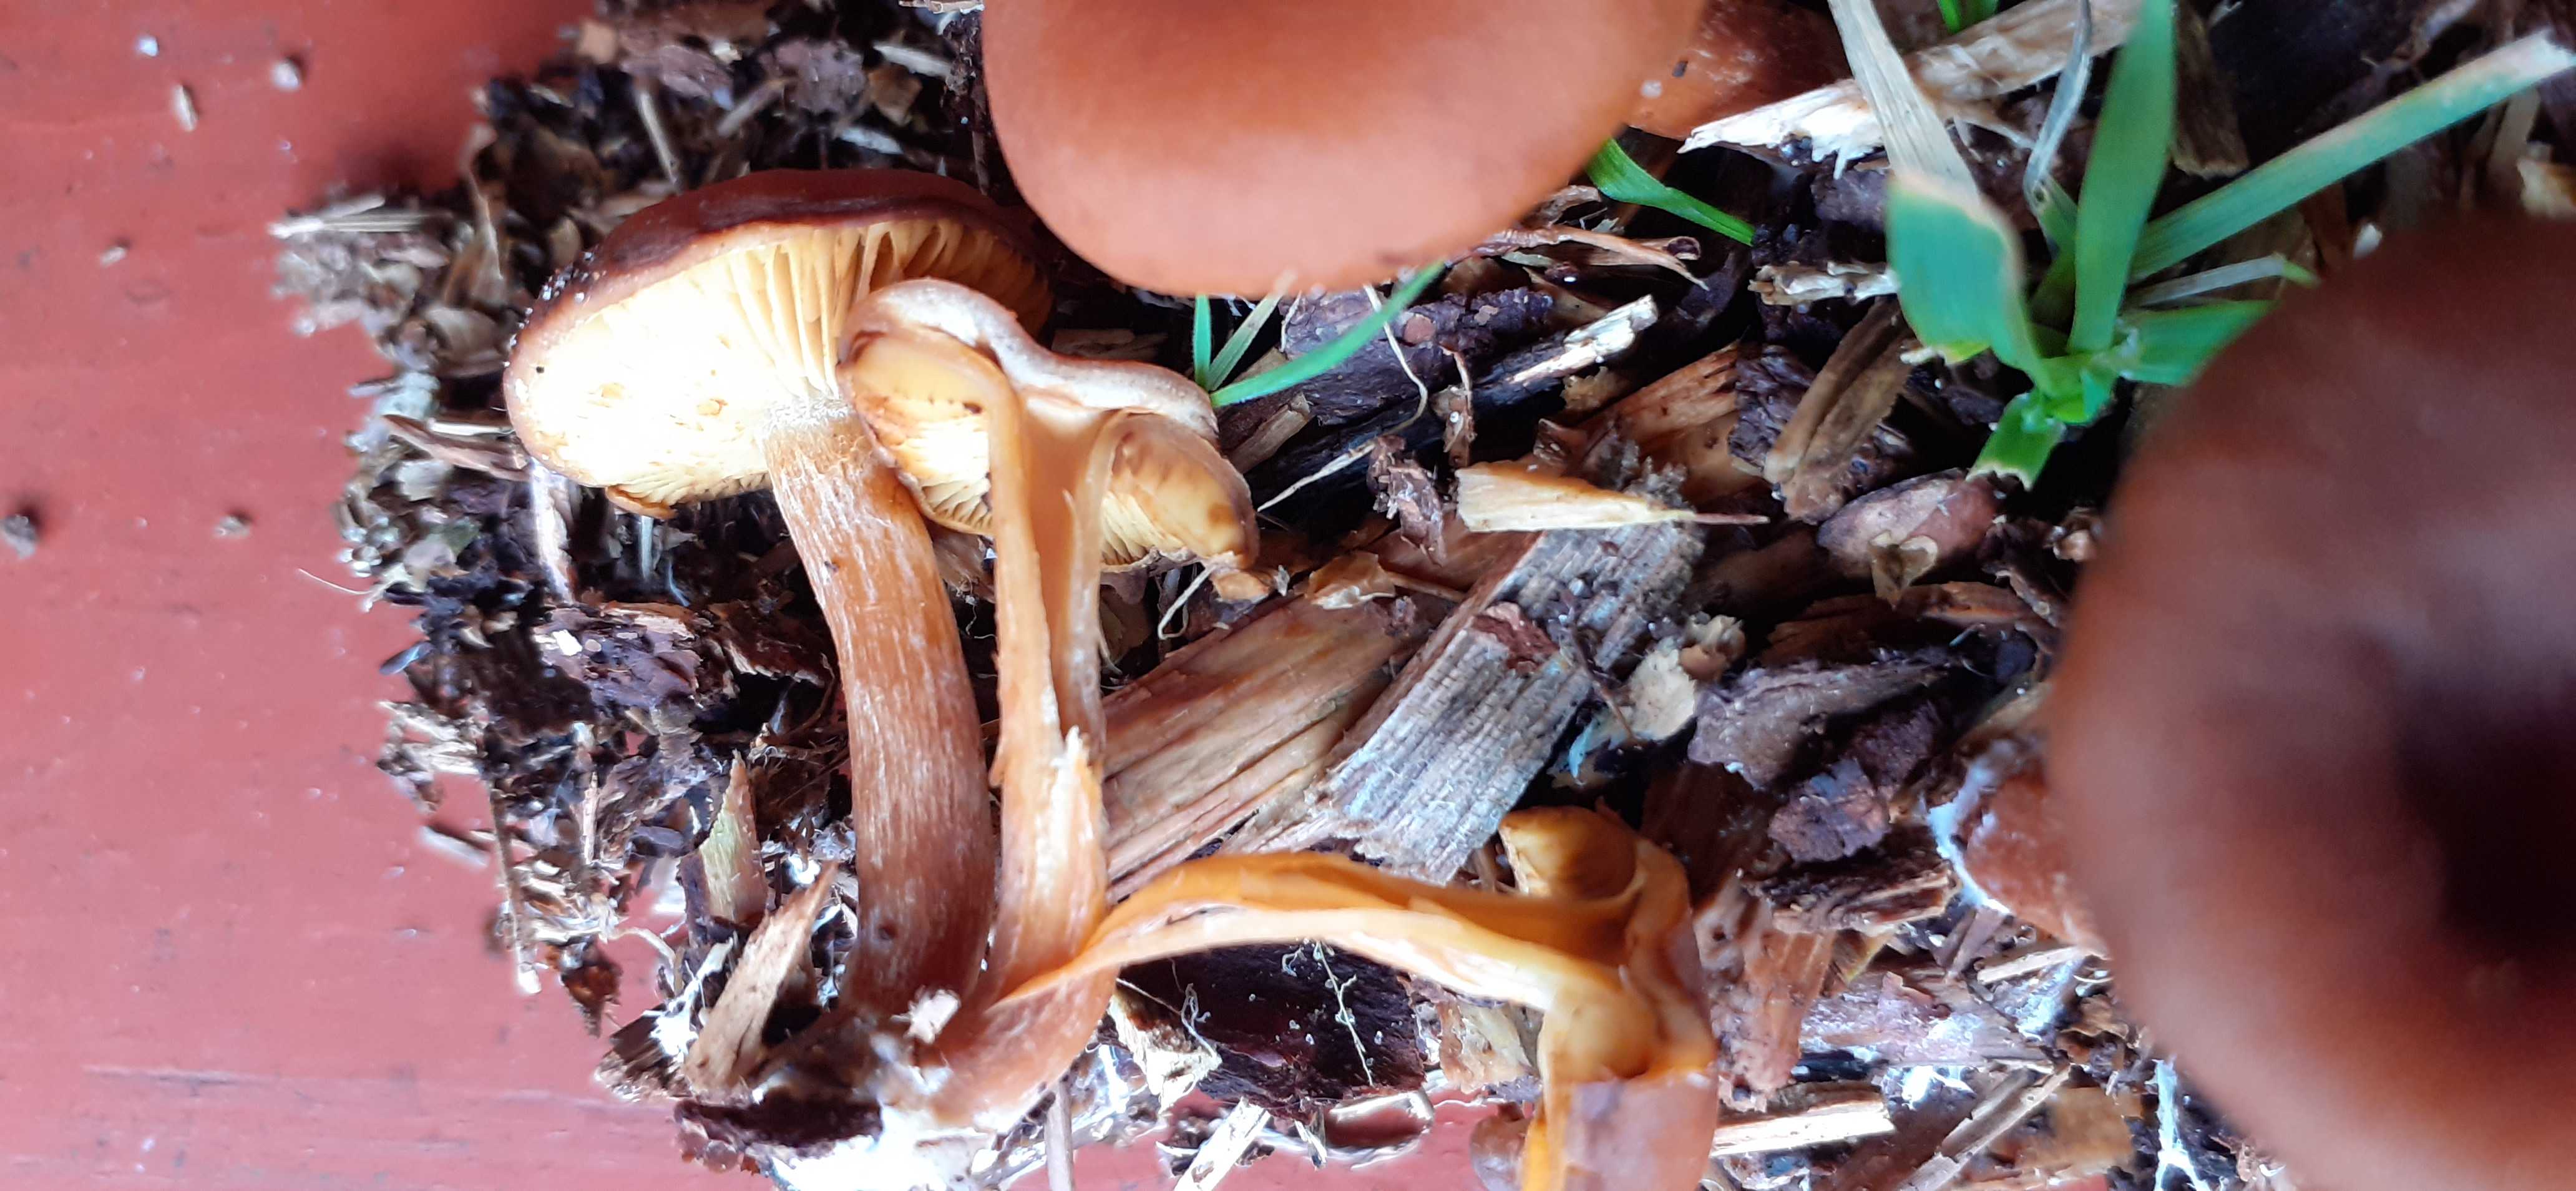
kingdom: Fungi
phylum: Basidiomycota
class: Agaricomycetes
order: Agaricales
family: Hymenogastraceae
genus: Gymnopilus
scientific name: Gymnopilus
